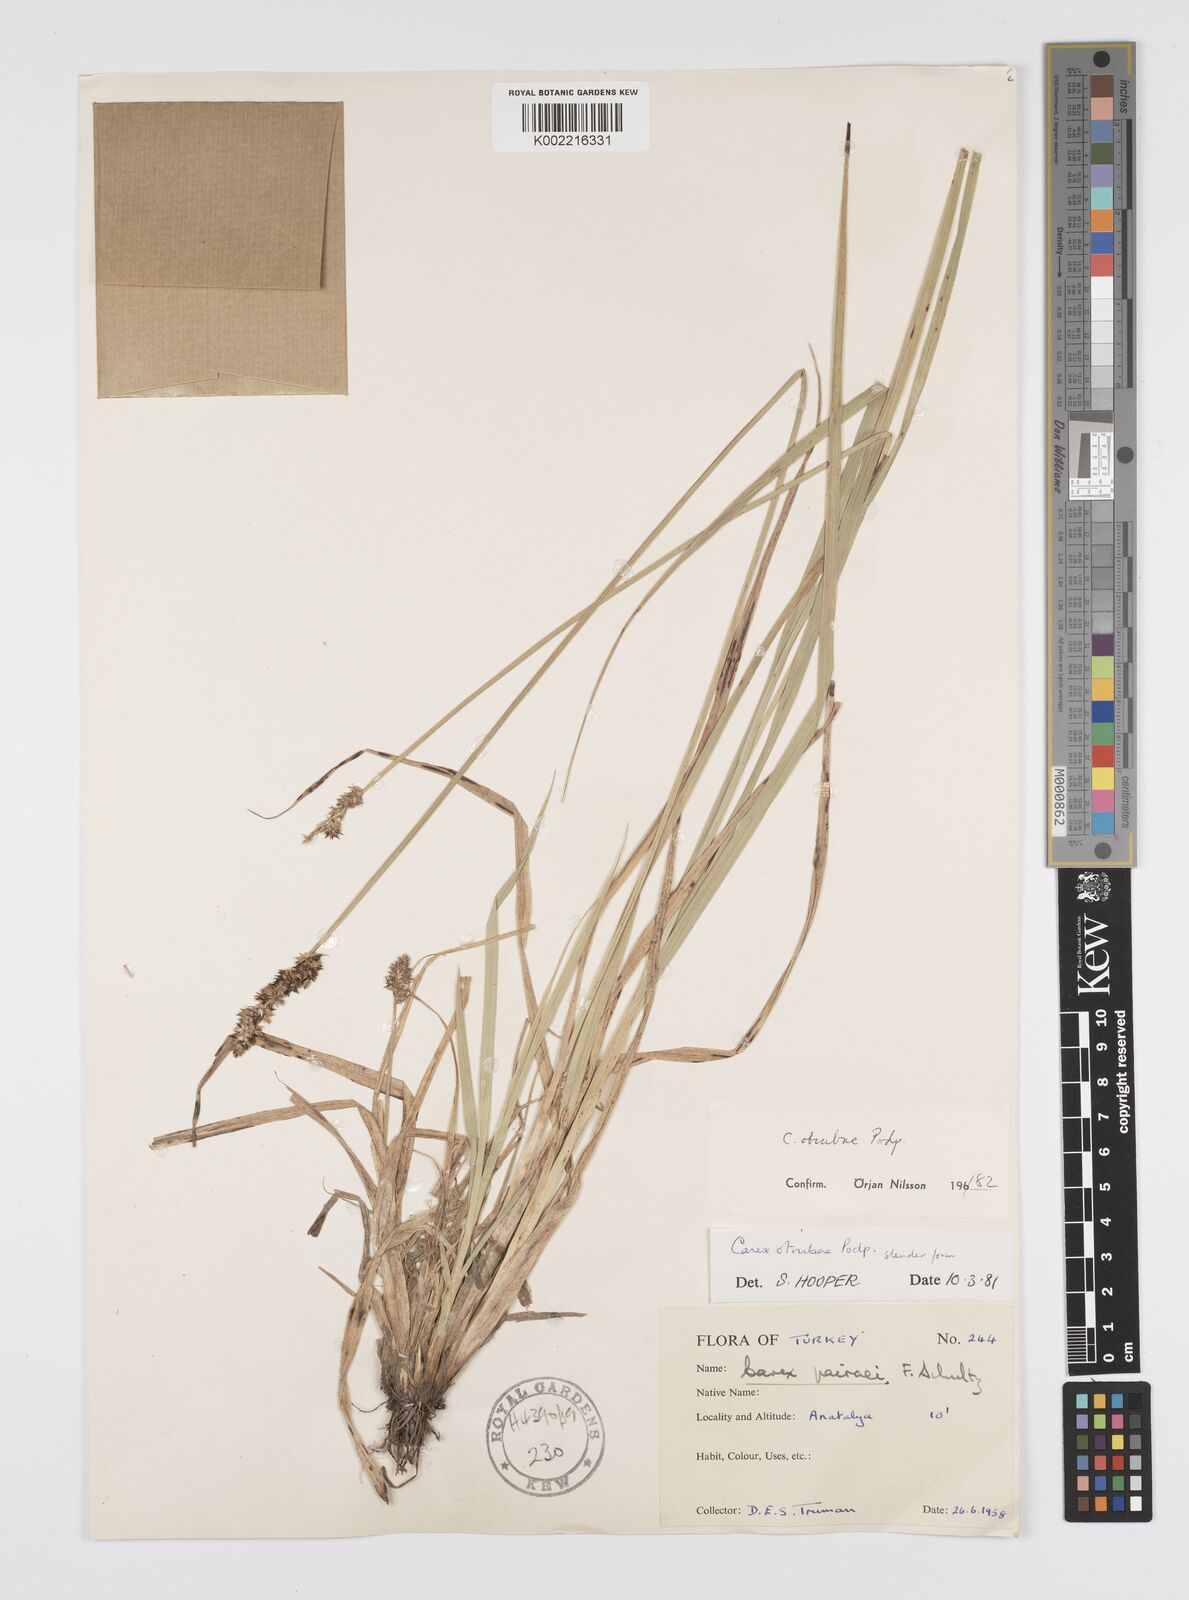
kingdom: Plantae
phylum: Tracheophyta
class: Liliopsida
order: Poales
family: Cyperaceae
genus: Carex
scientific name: Carex otrubae
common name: False fox-sedge
